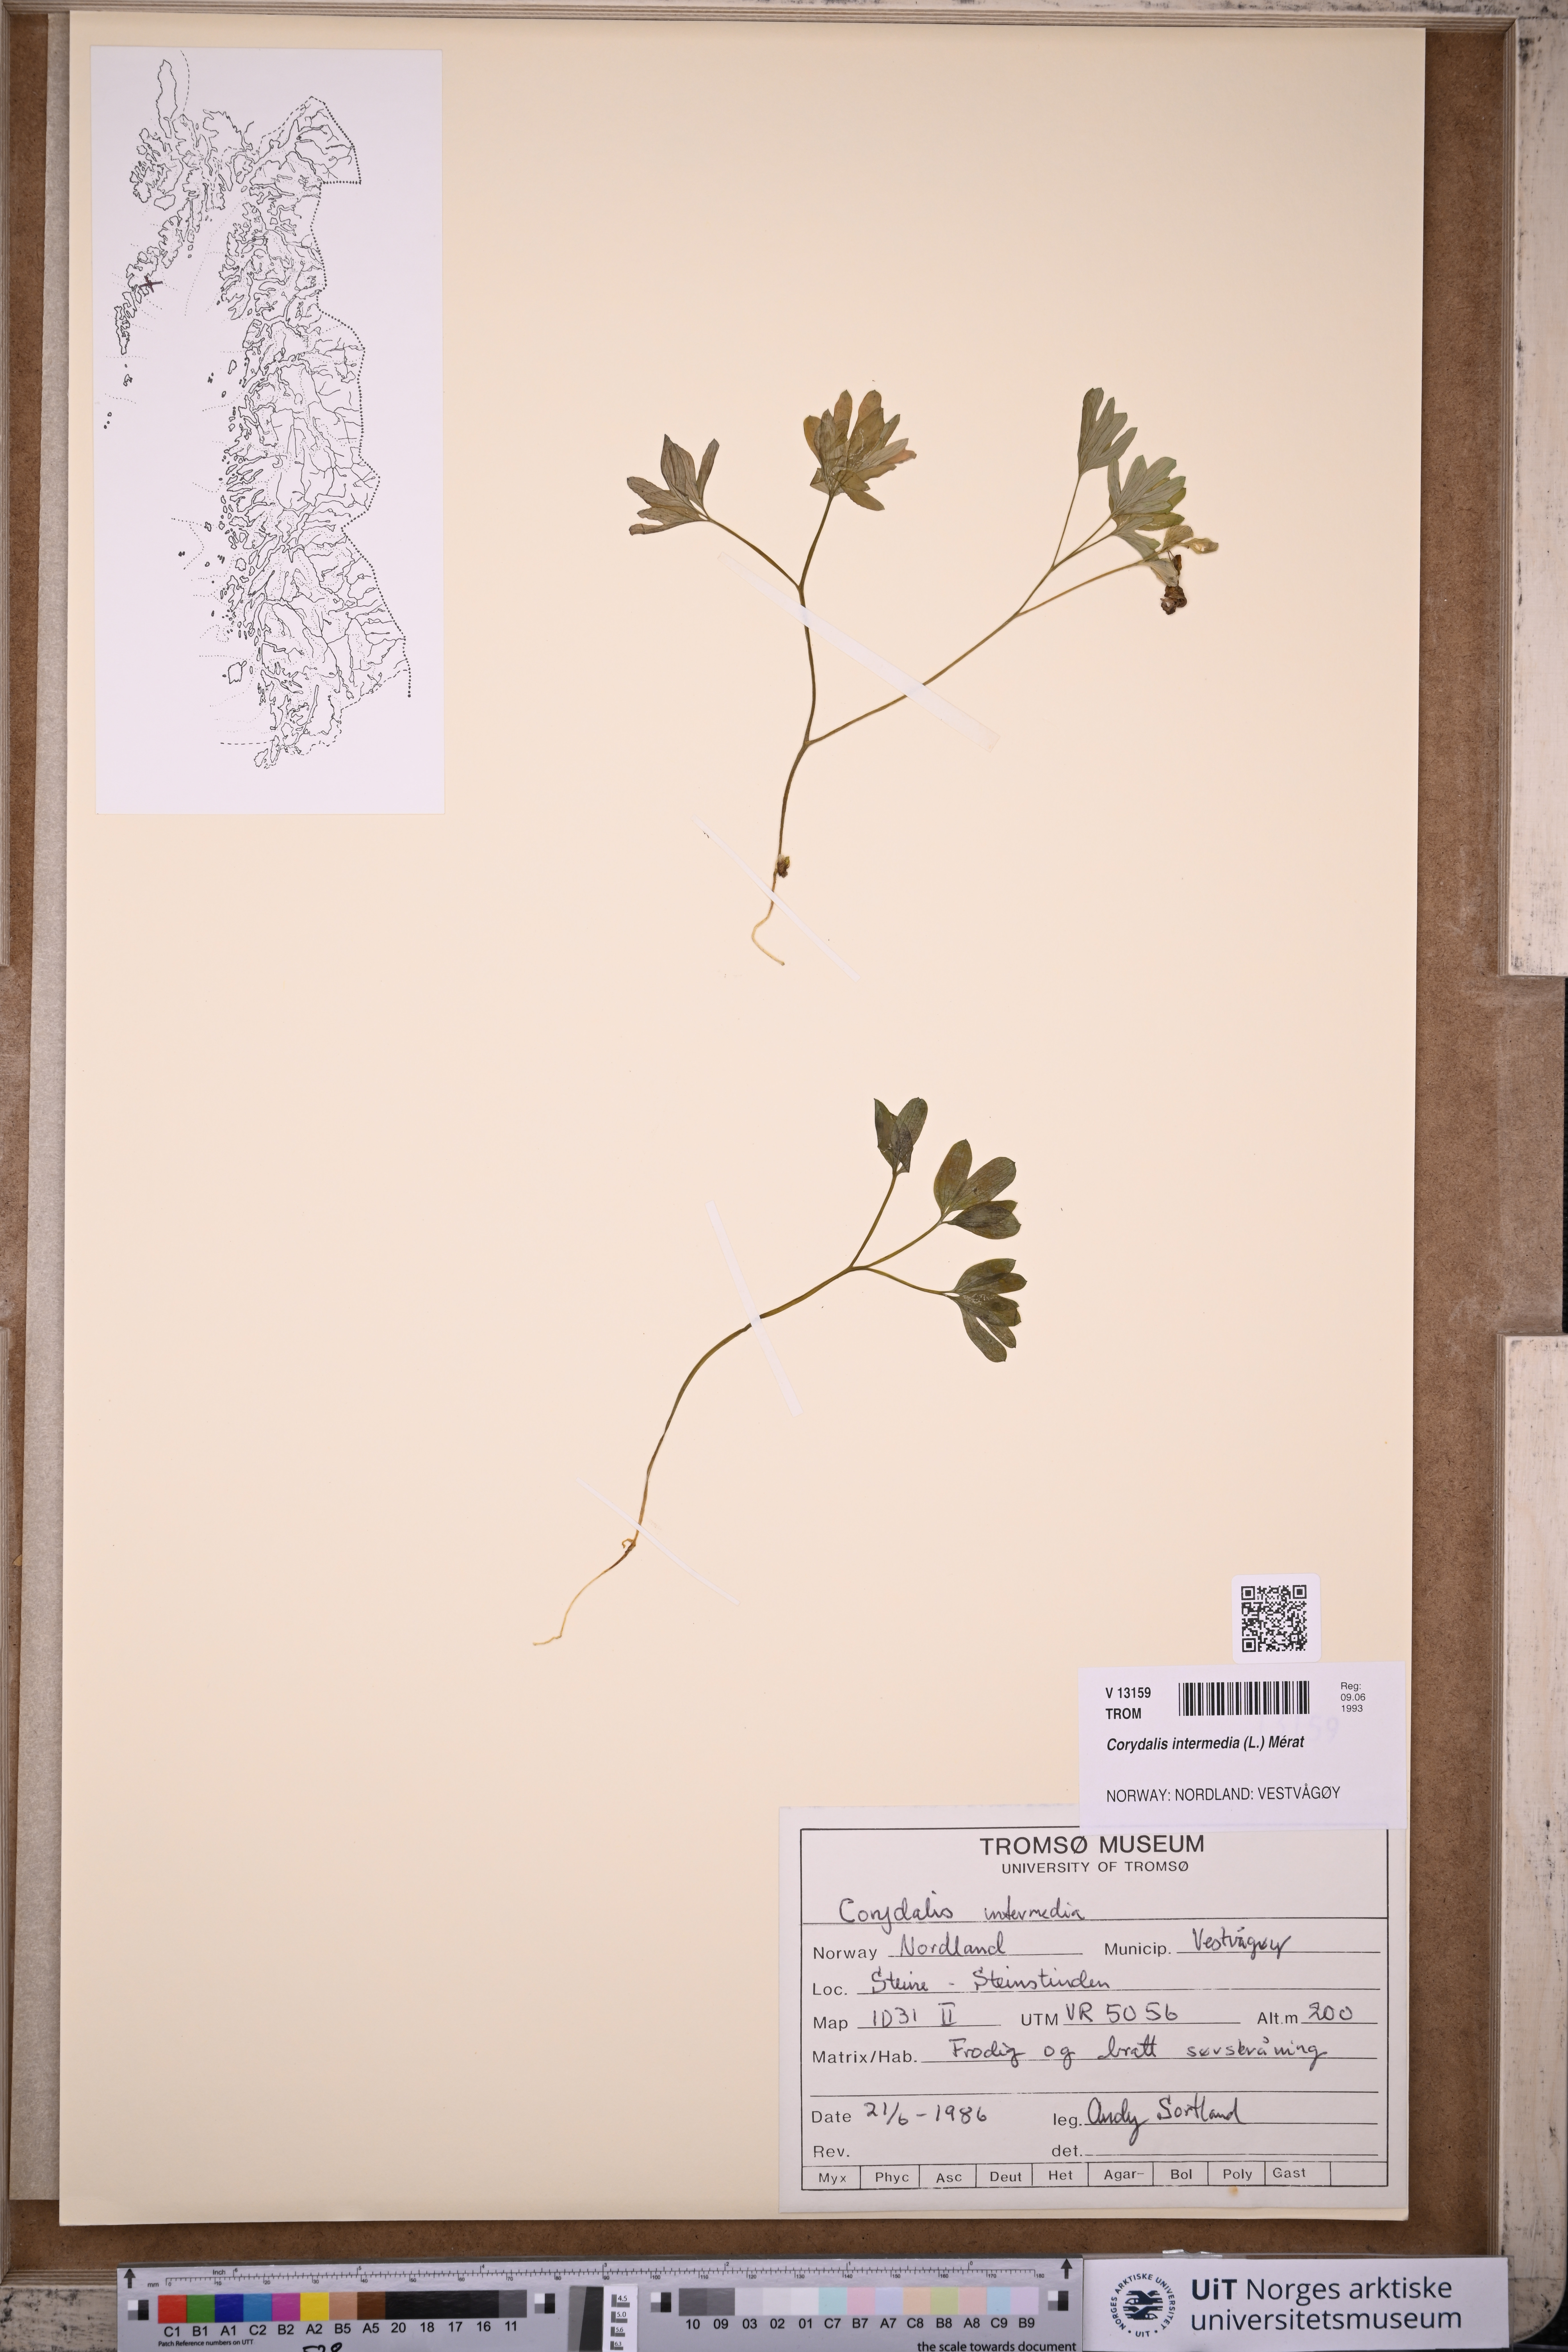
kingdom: Plantae
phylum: Tracheophyta
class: Magnoliopsida
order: Ranunculales
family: Papaveraceae
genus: Corydalis
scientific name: Corydalis intermedia
